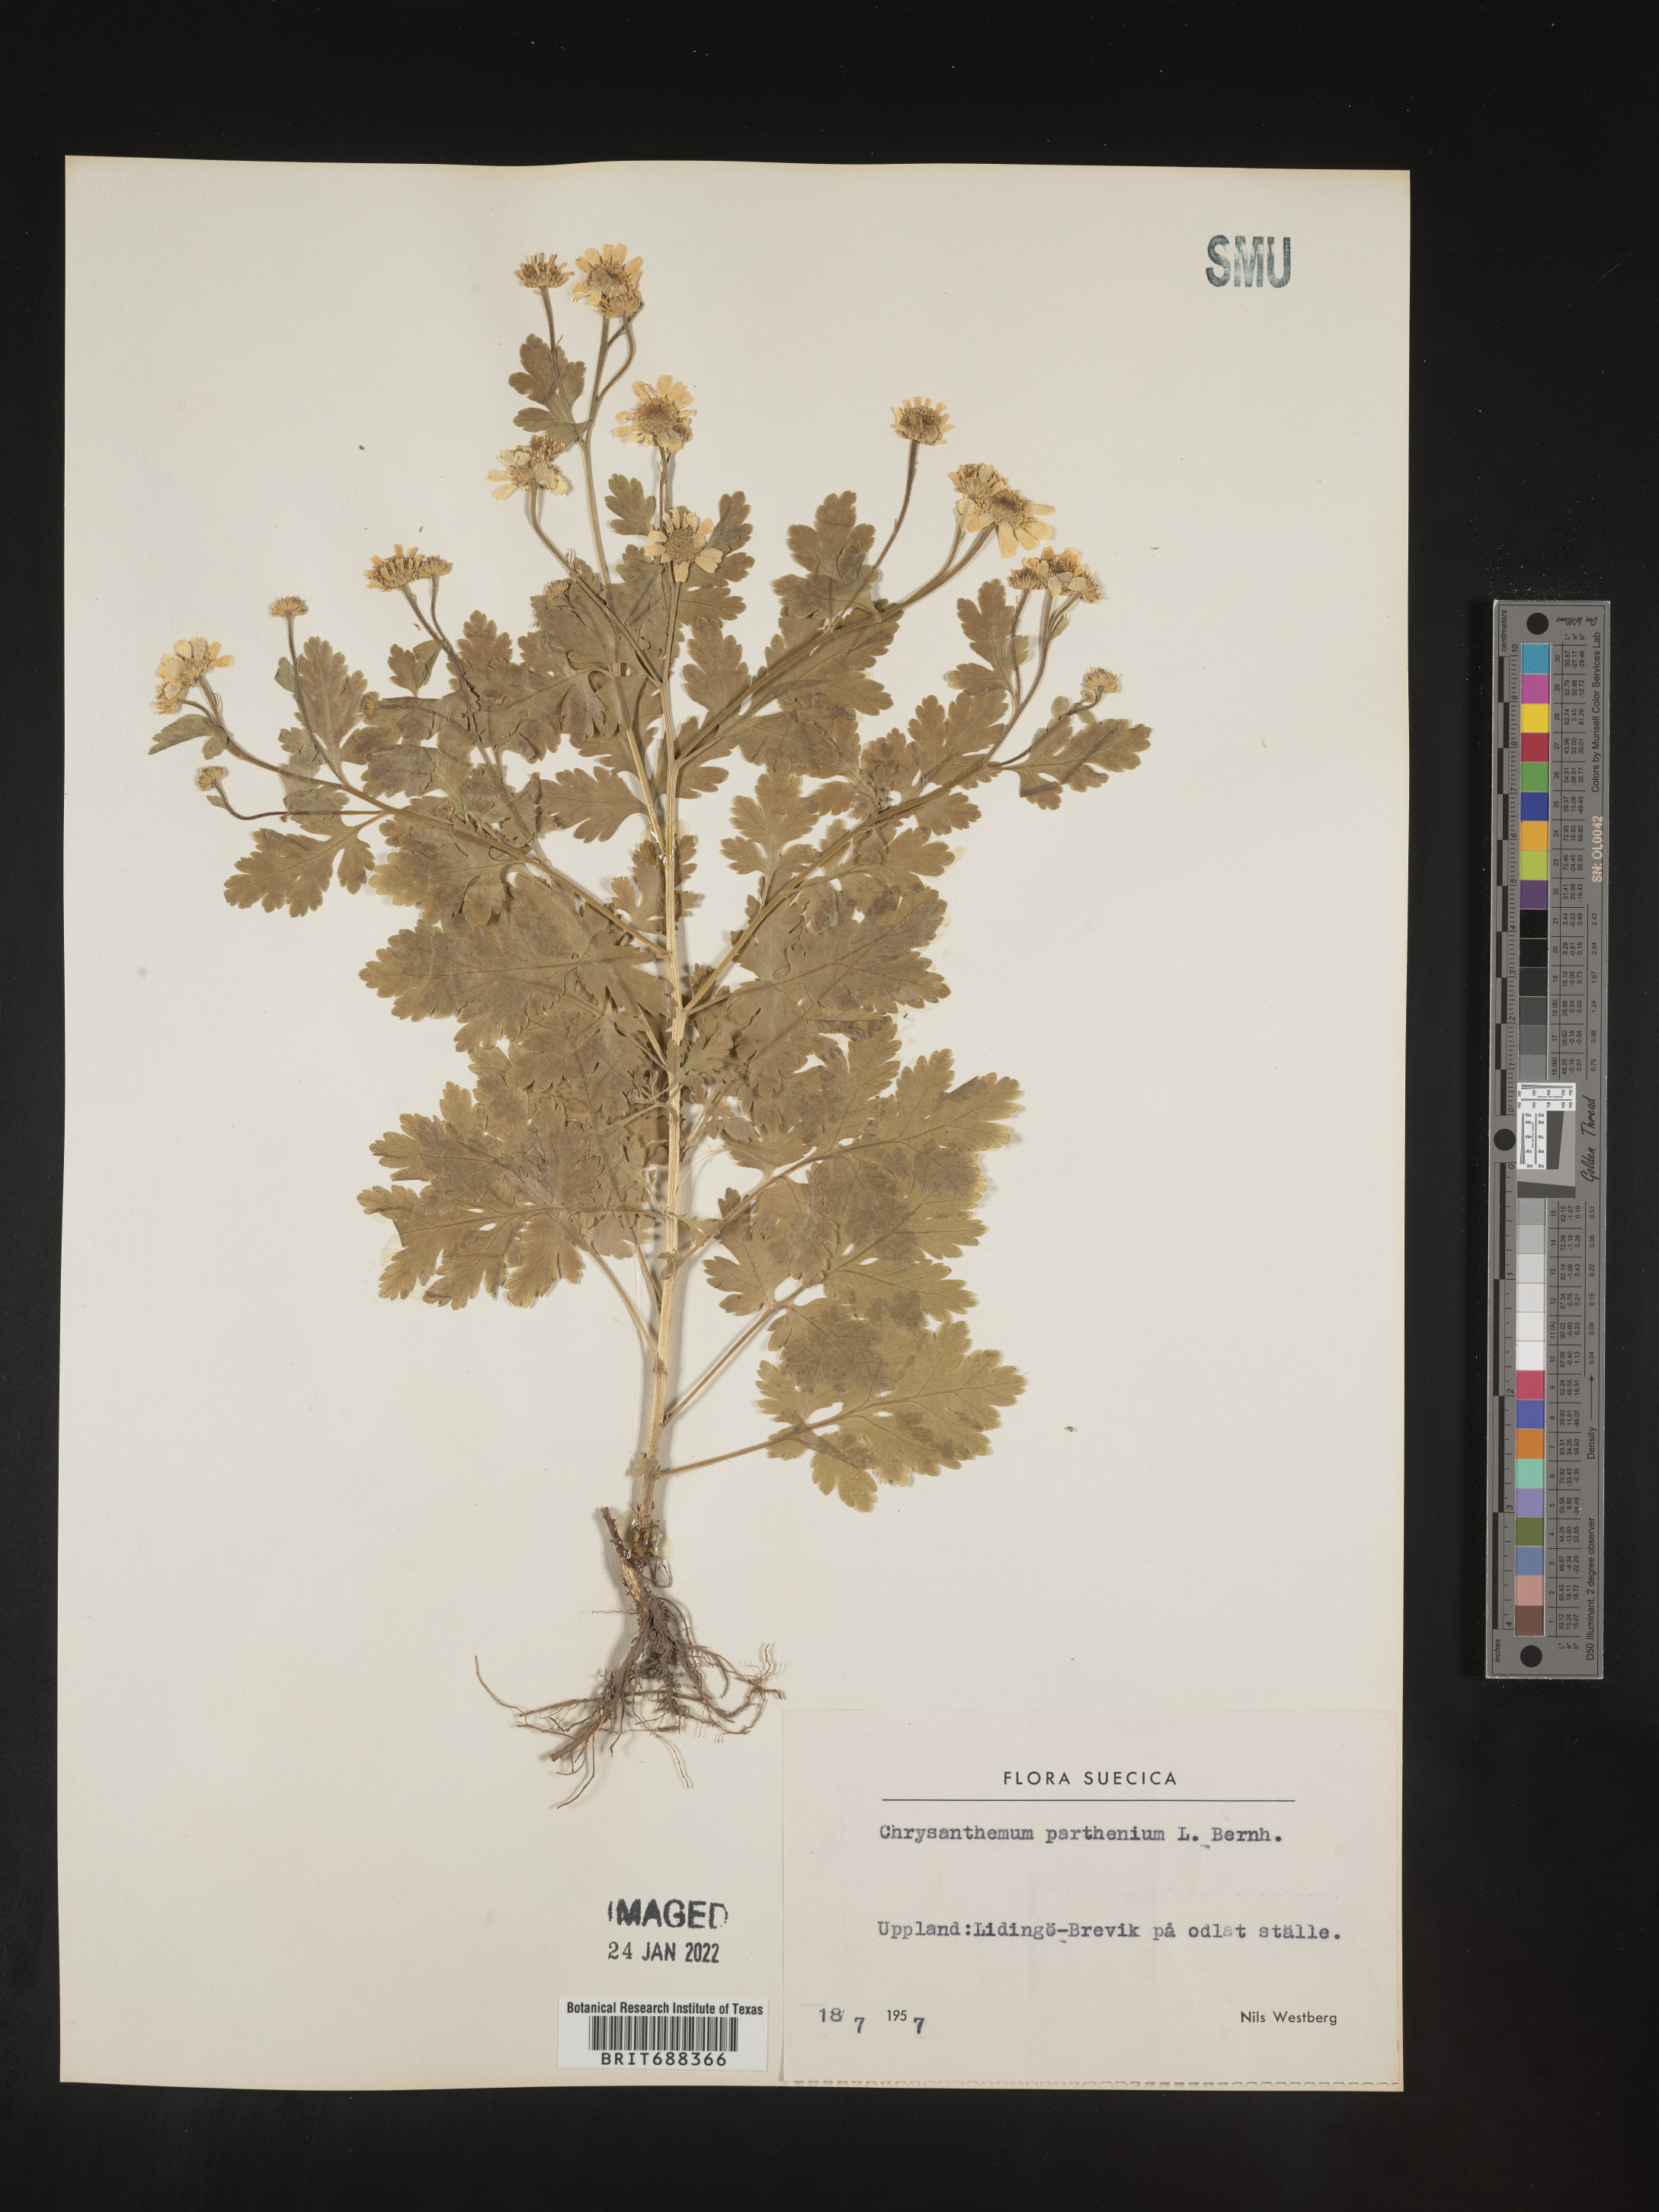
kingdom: Plantae
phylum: Tracheophyta
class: Magnoliopsida
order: Asterales
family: Asteraceae
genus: Chrysanthemum
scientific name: Chrysanthemum
